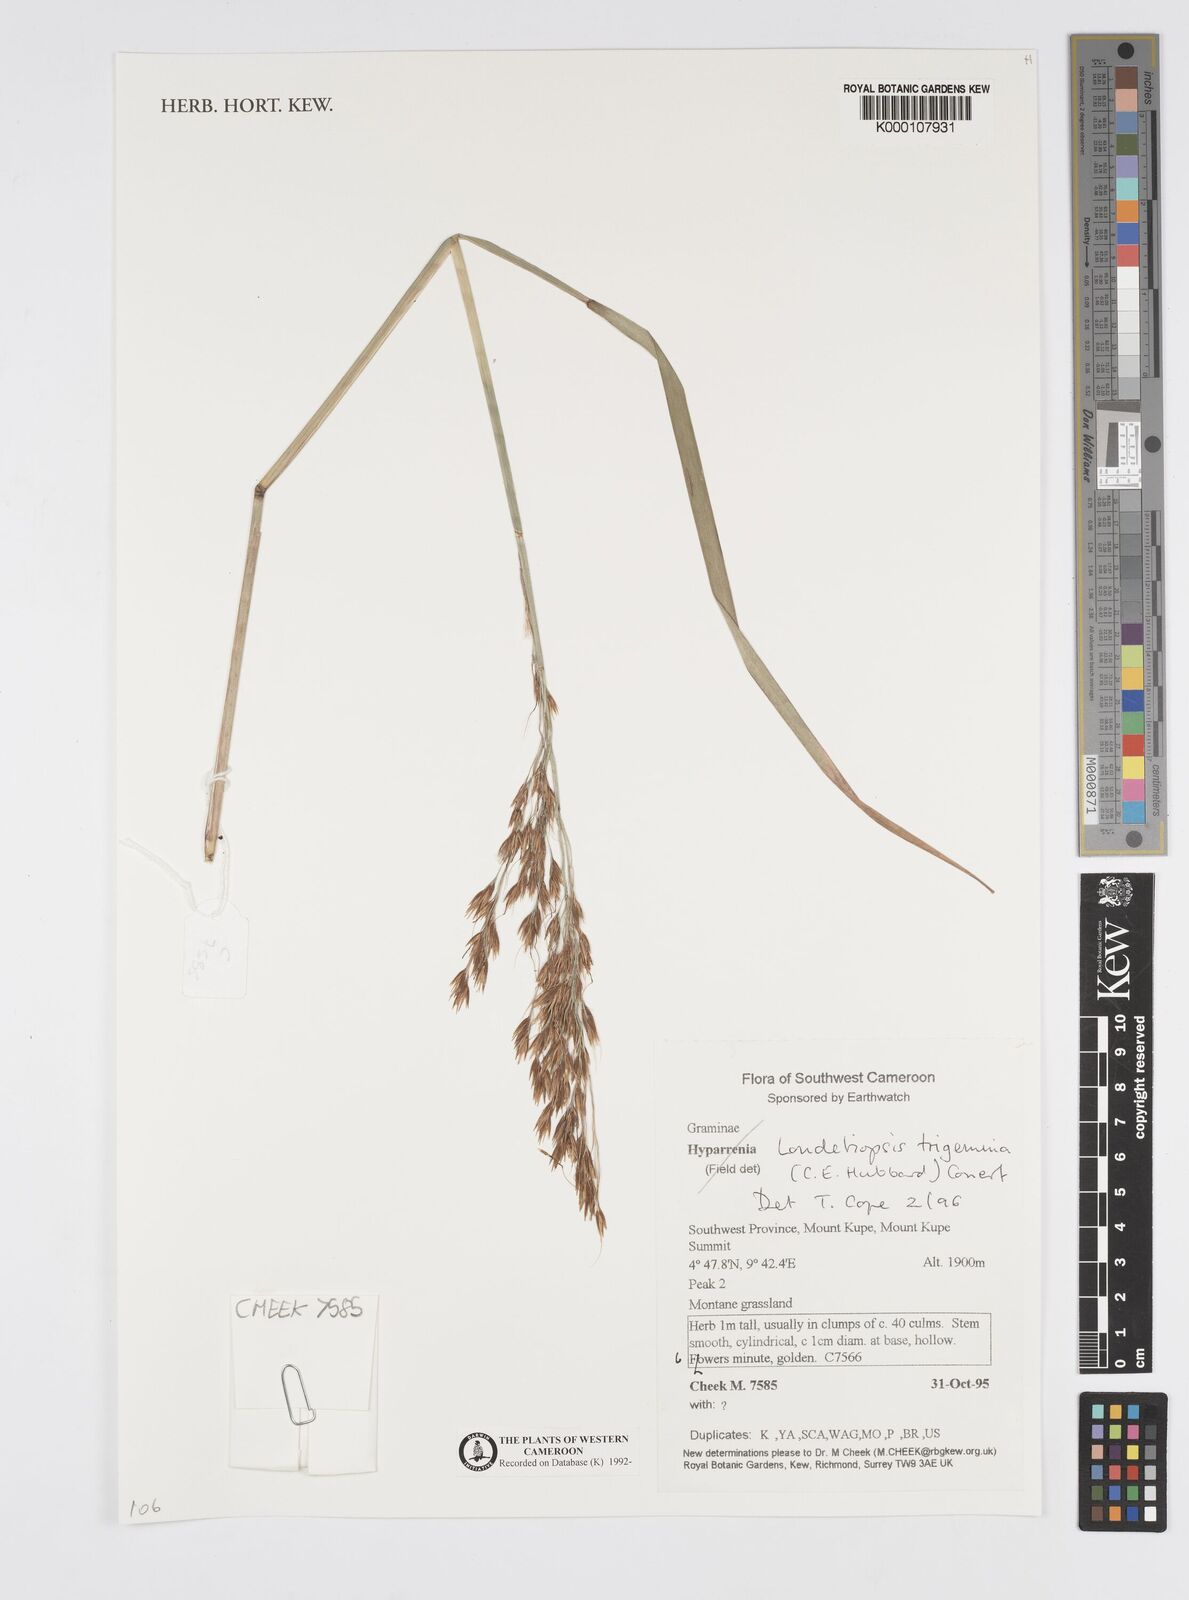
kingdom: Plantae
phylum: Tracheophyta
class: Liliopsida
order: Poales
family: Poaceae
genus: Loudetiopsis
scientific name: Loudetiopsis trigemina
